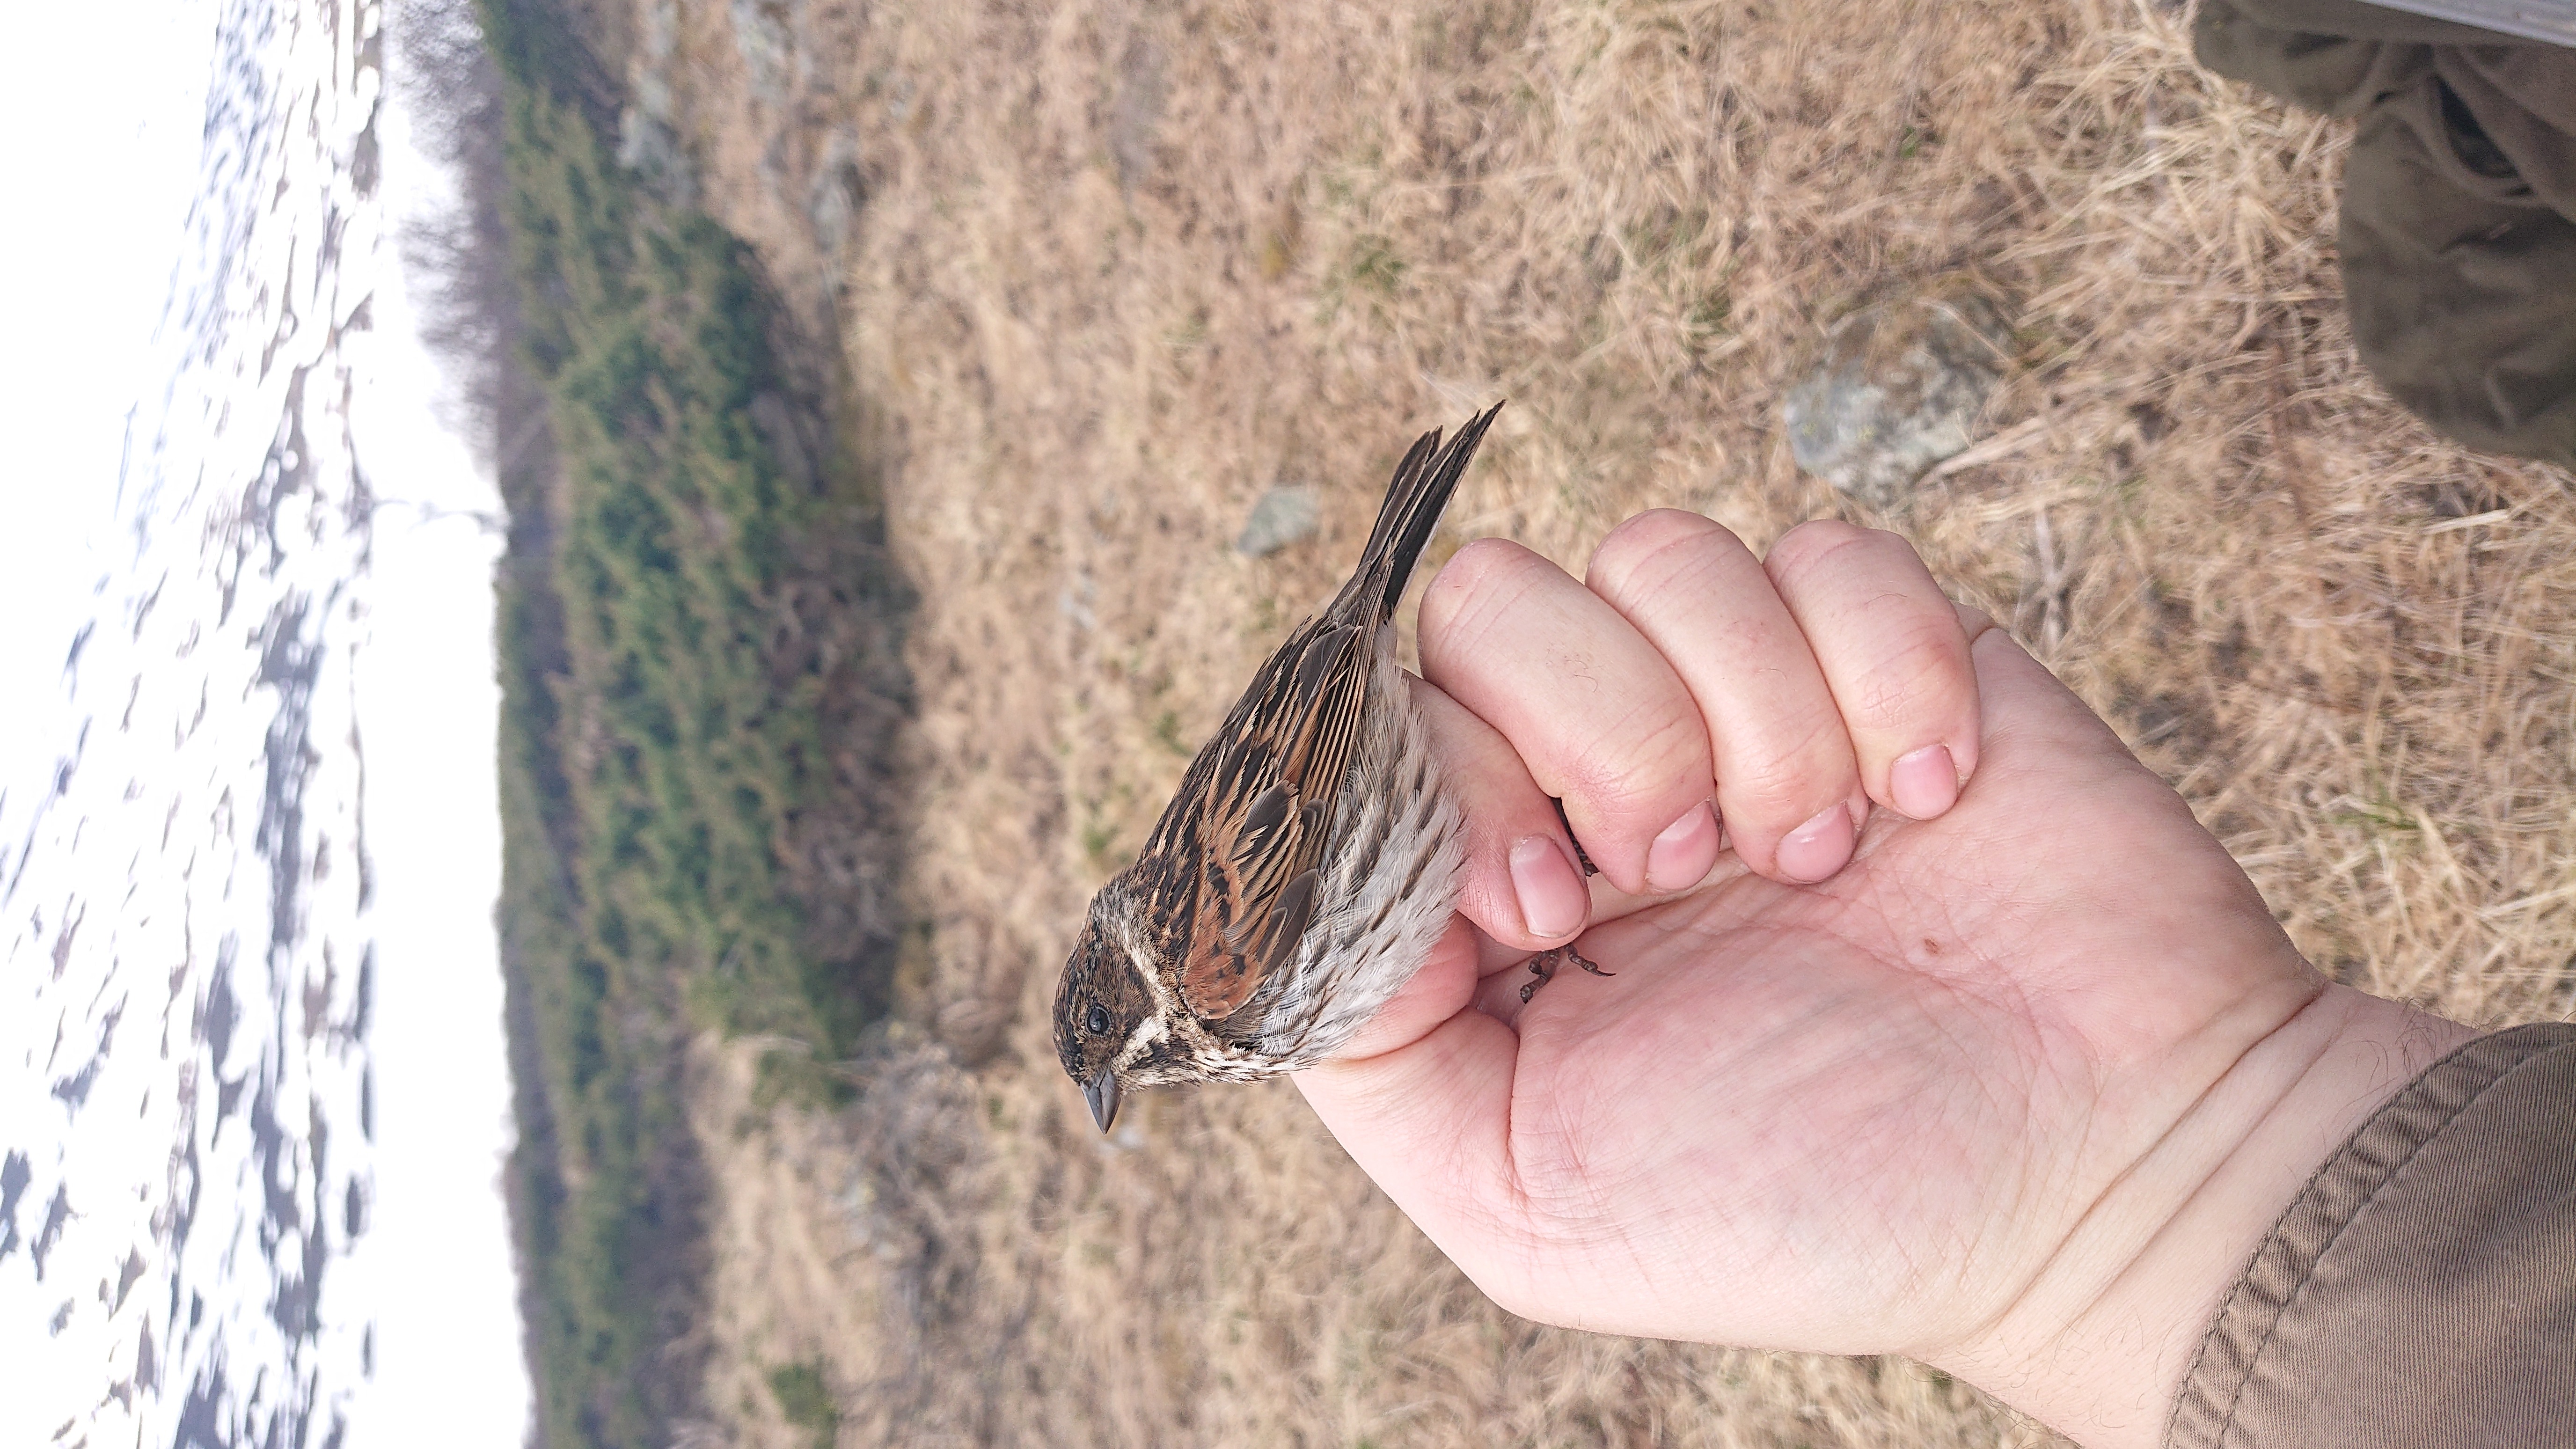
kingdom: Animalia
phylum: Chordata
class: Aves
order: Passeriformes
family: Emberizidae
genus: Emberiza
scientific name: Emberiza schoeniclus
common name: Reed bunting
